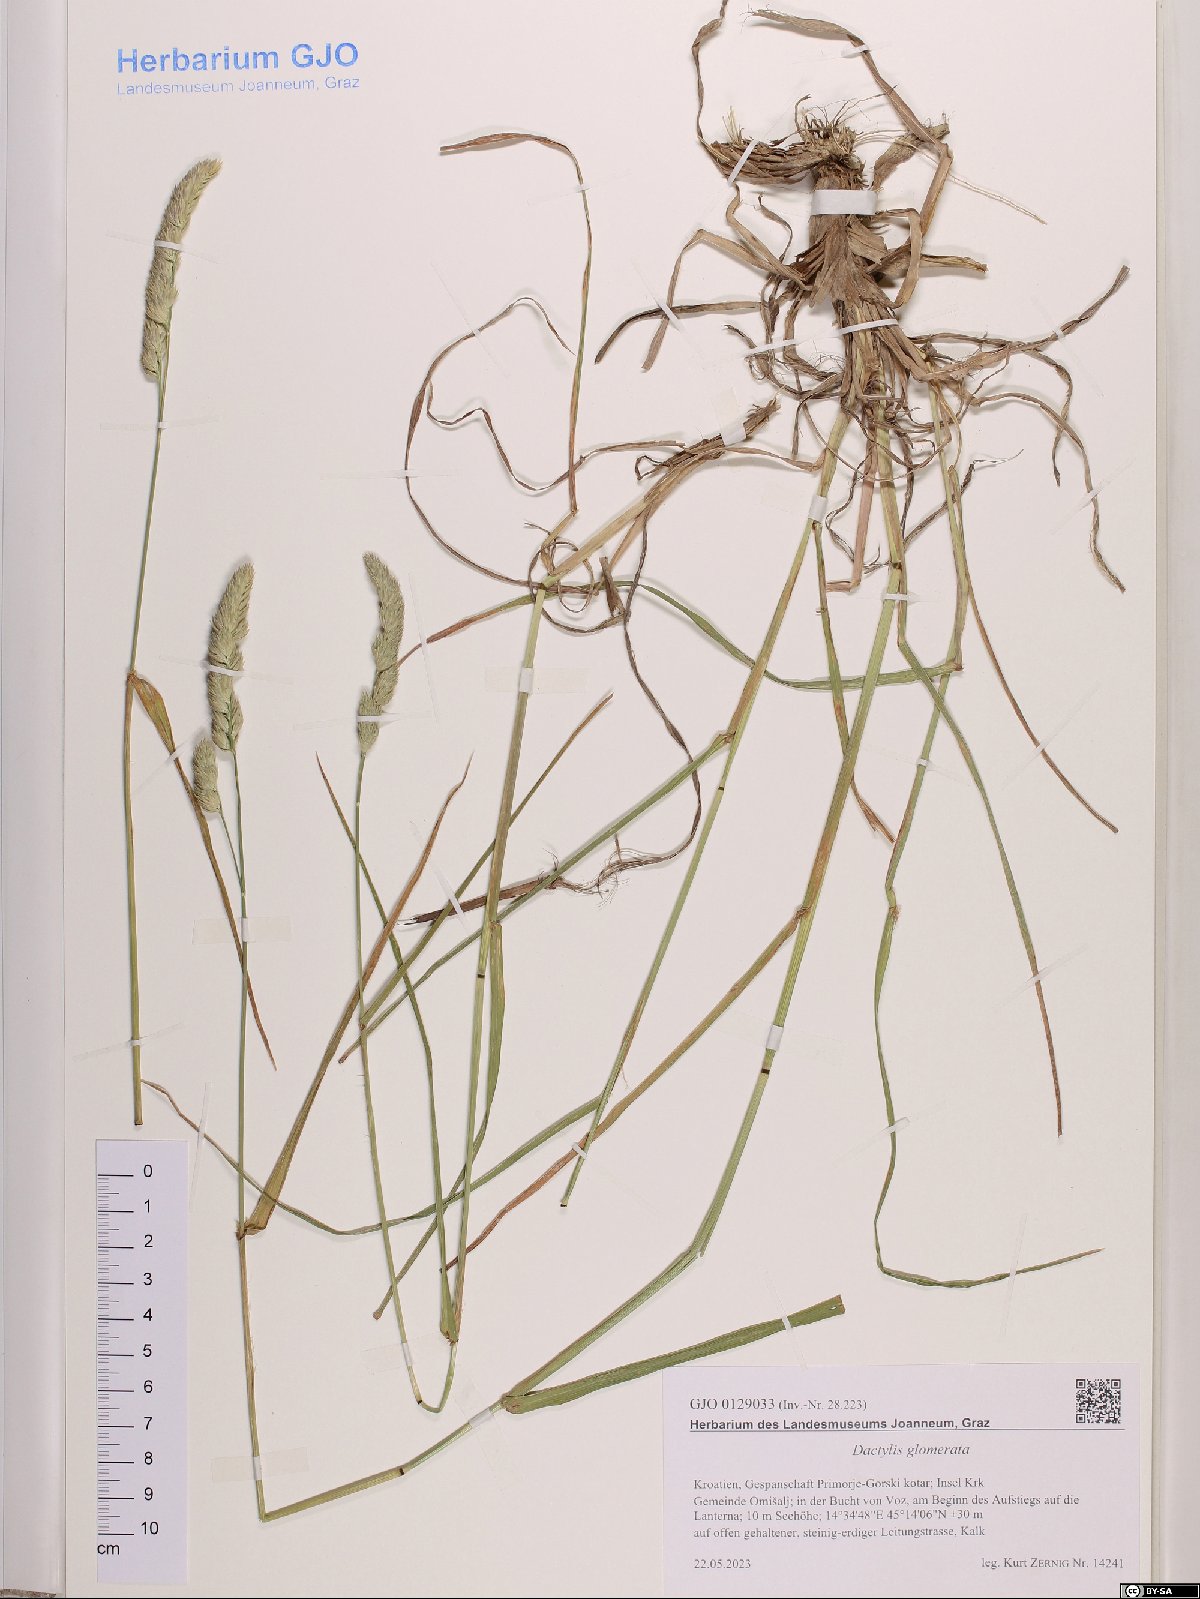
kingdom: Plantae
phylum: Tracheophyta
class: Liliopsida
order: Poales
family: Poaceae
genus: Dactylis
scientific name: Dactylis glomerata
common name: Orchardgrass
